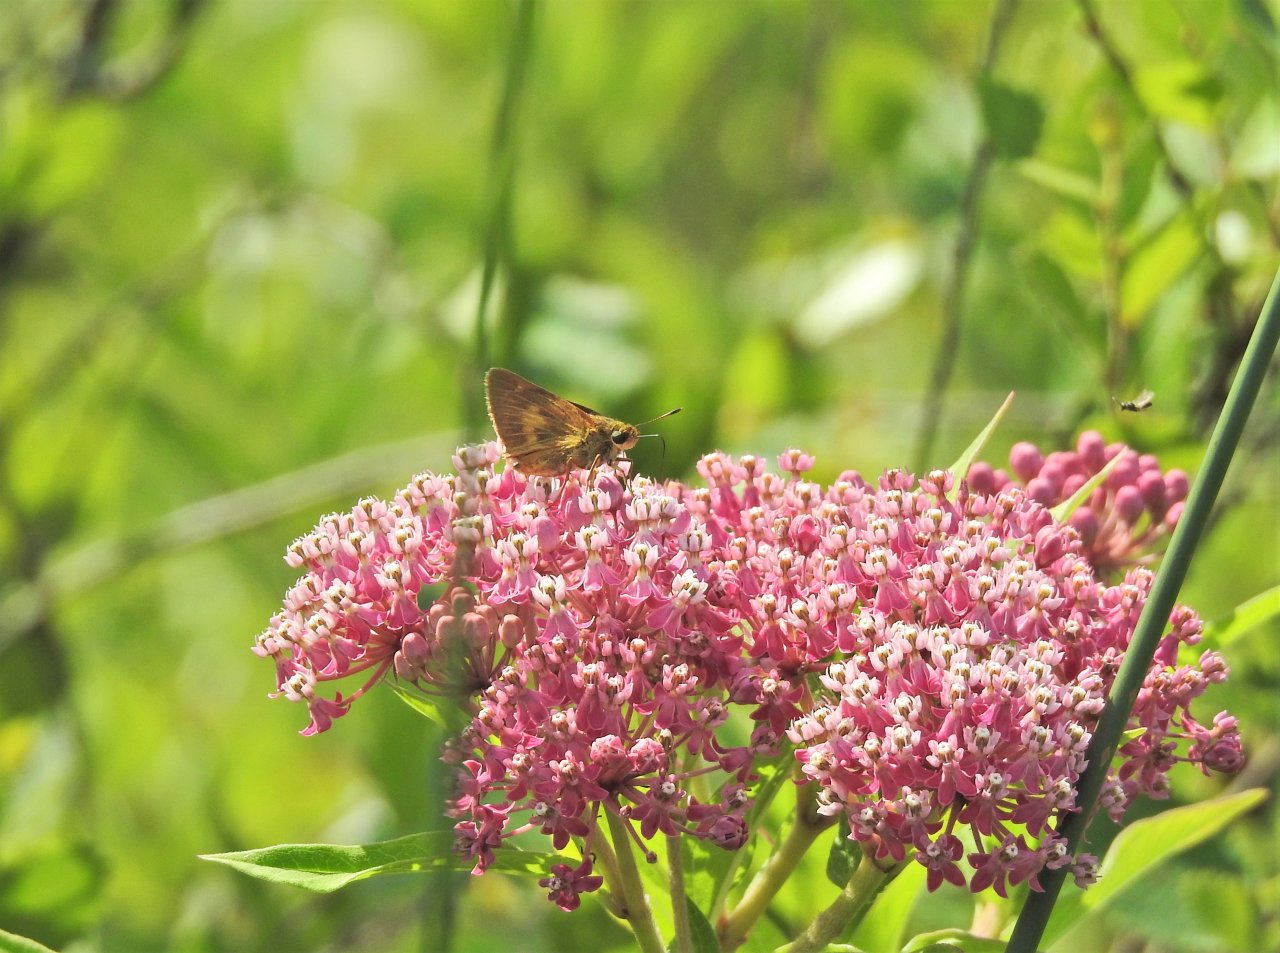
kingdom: Animalia
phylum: Arthropoda
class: Insecta
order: Lepidoptera
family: Hesperiidae
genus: Euphyes
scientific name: Euphyes conspicua
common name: Black Dash
